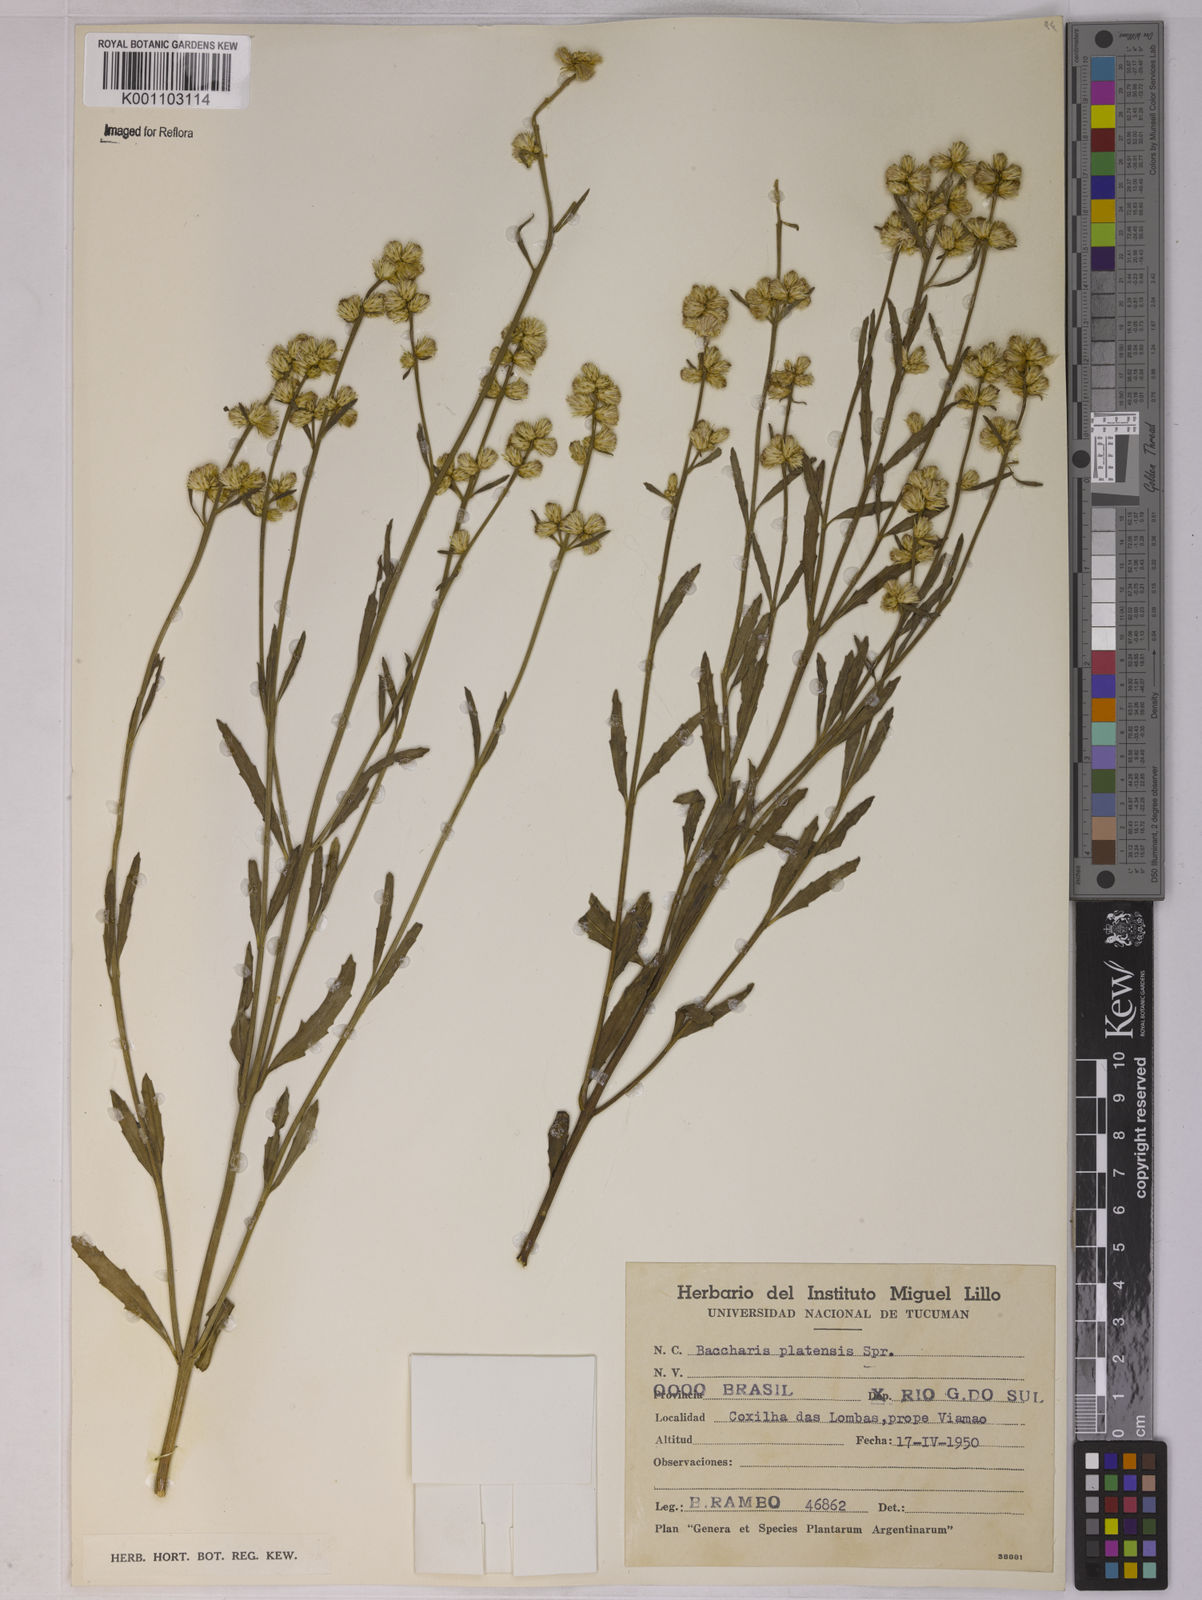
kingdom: Plantae
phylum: Tracheophyta
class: Magnoliopsida
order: Asterales
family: Asteraceae
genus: Baccharis
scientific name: Baccharis spicata
